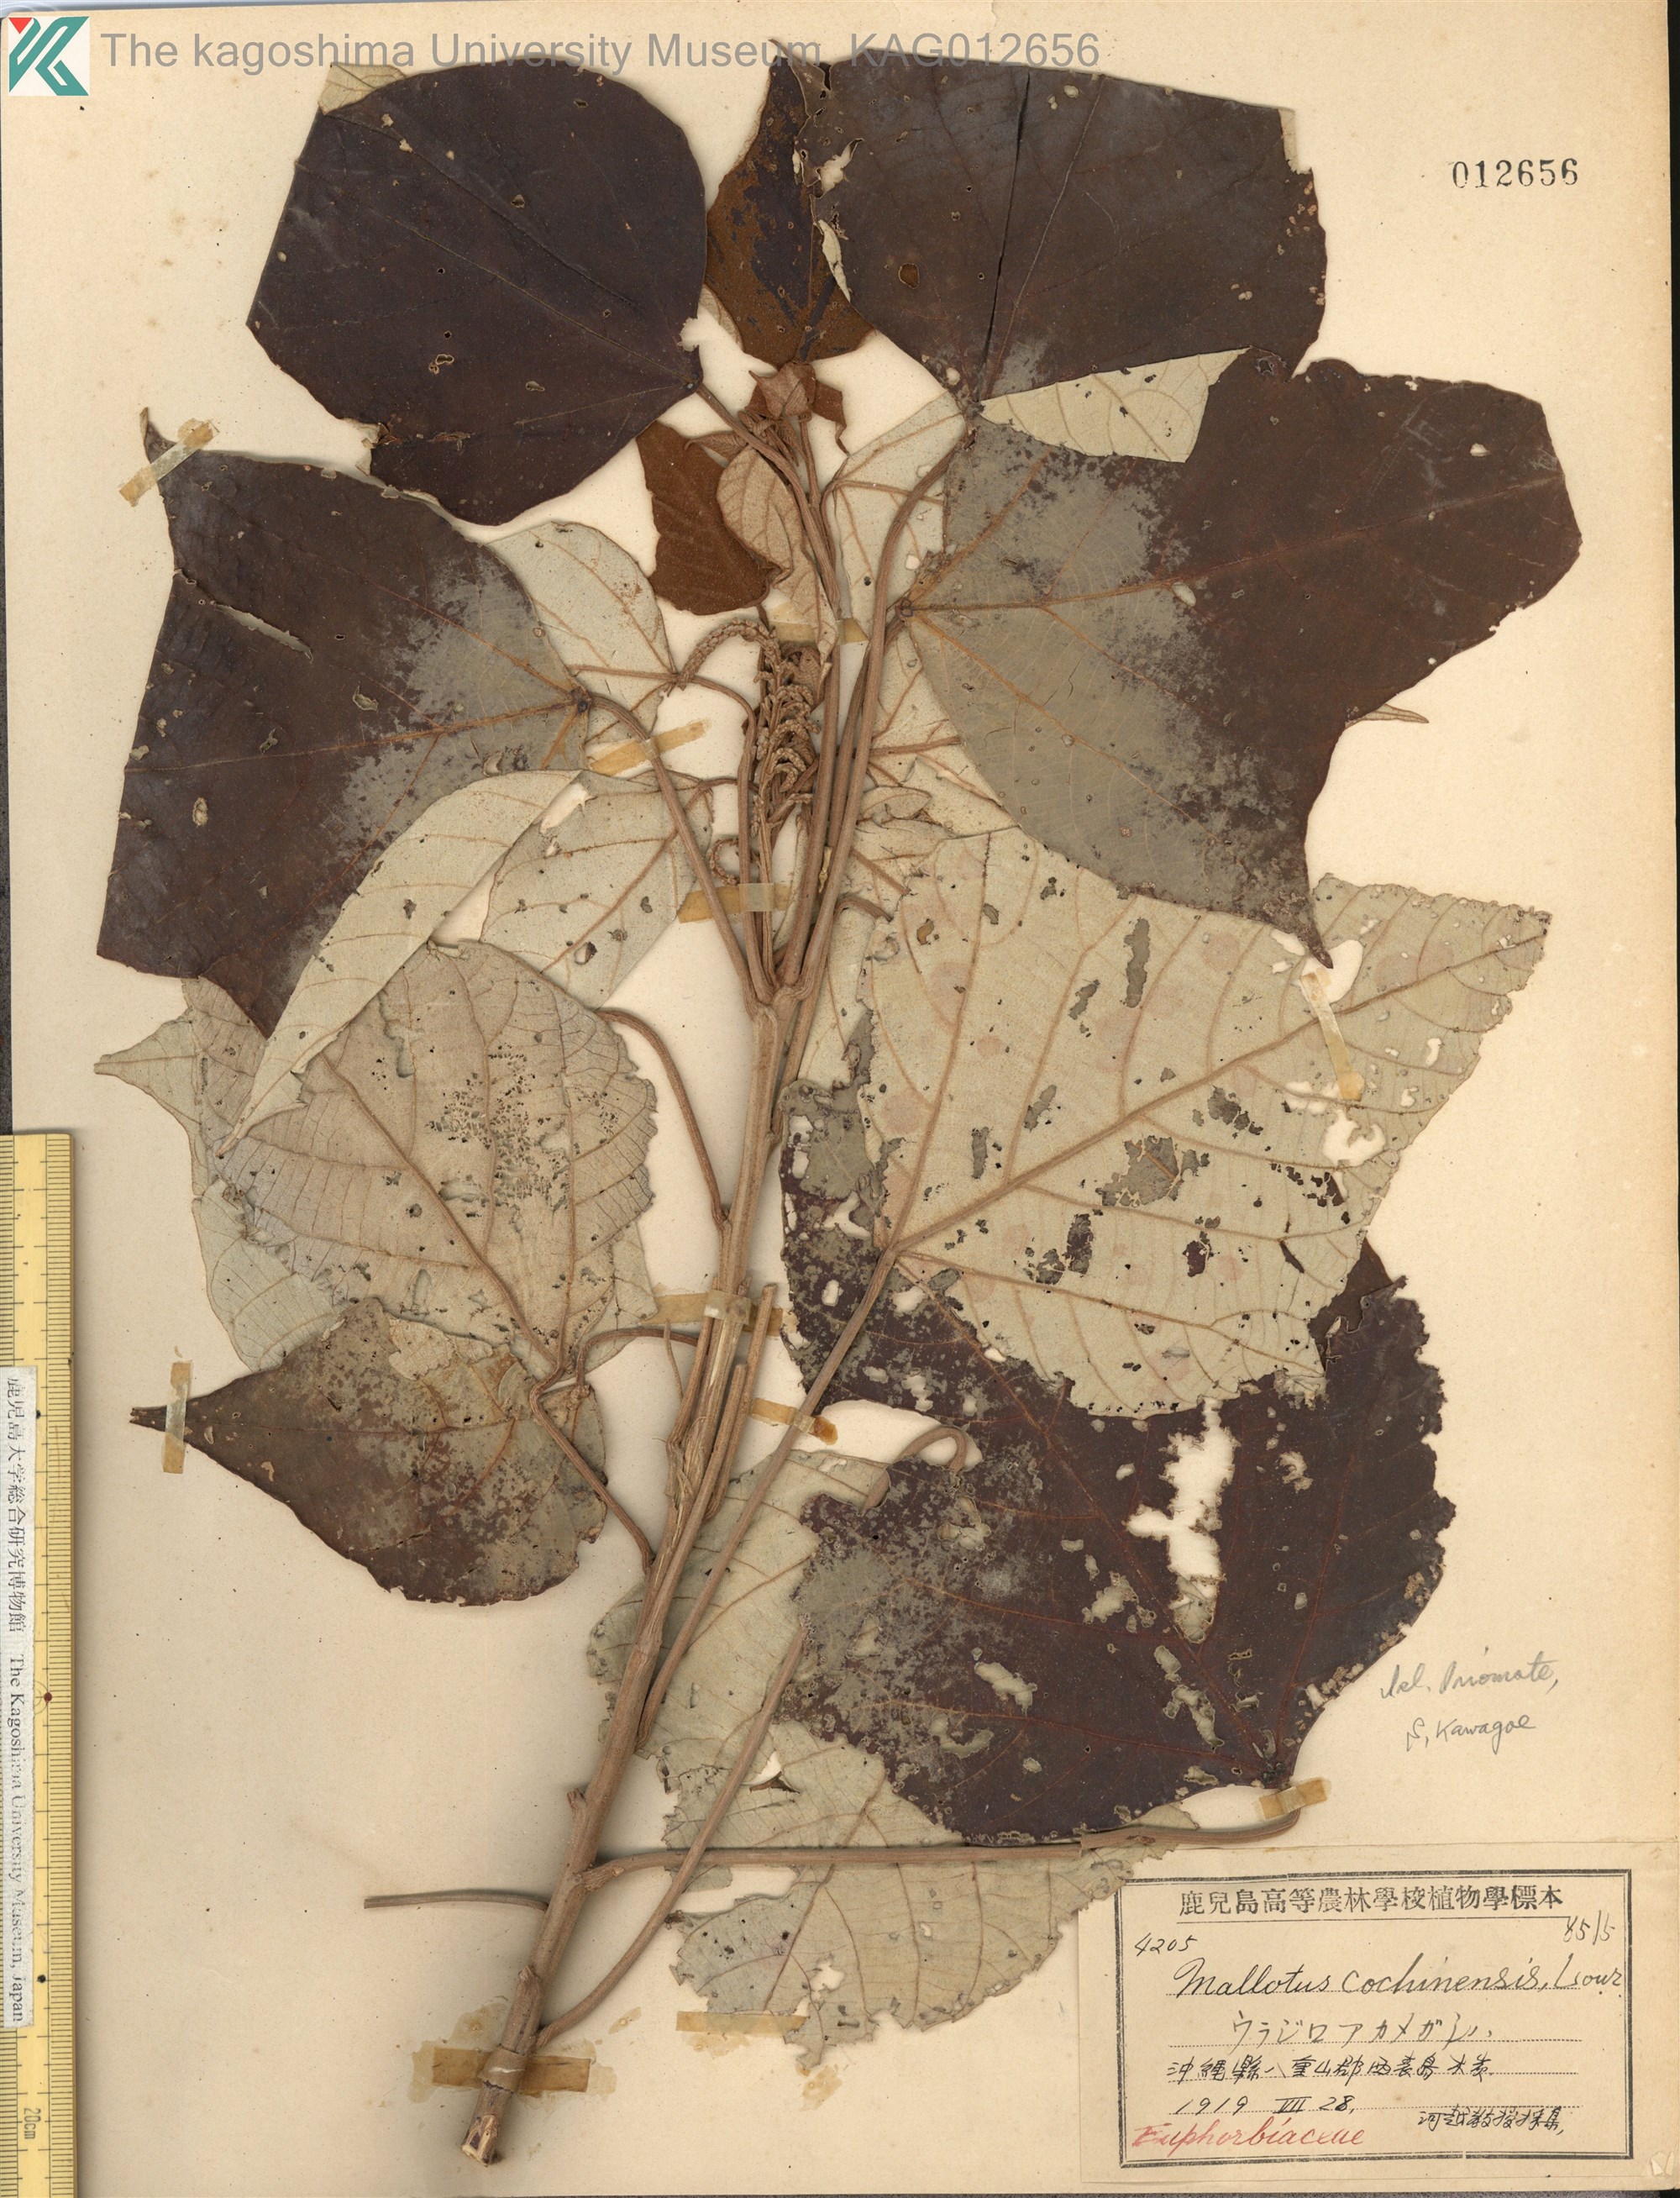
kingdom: Plantae
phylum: Tracheophyta
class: Magnoliopsida
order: Malpighiales
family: Euphorbiaceae
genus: Mallotus
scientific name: Mallotus paniculatus
